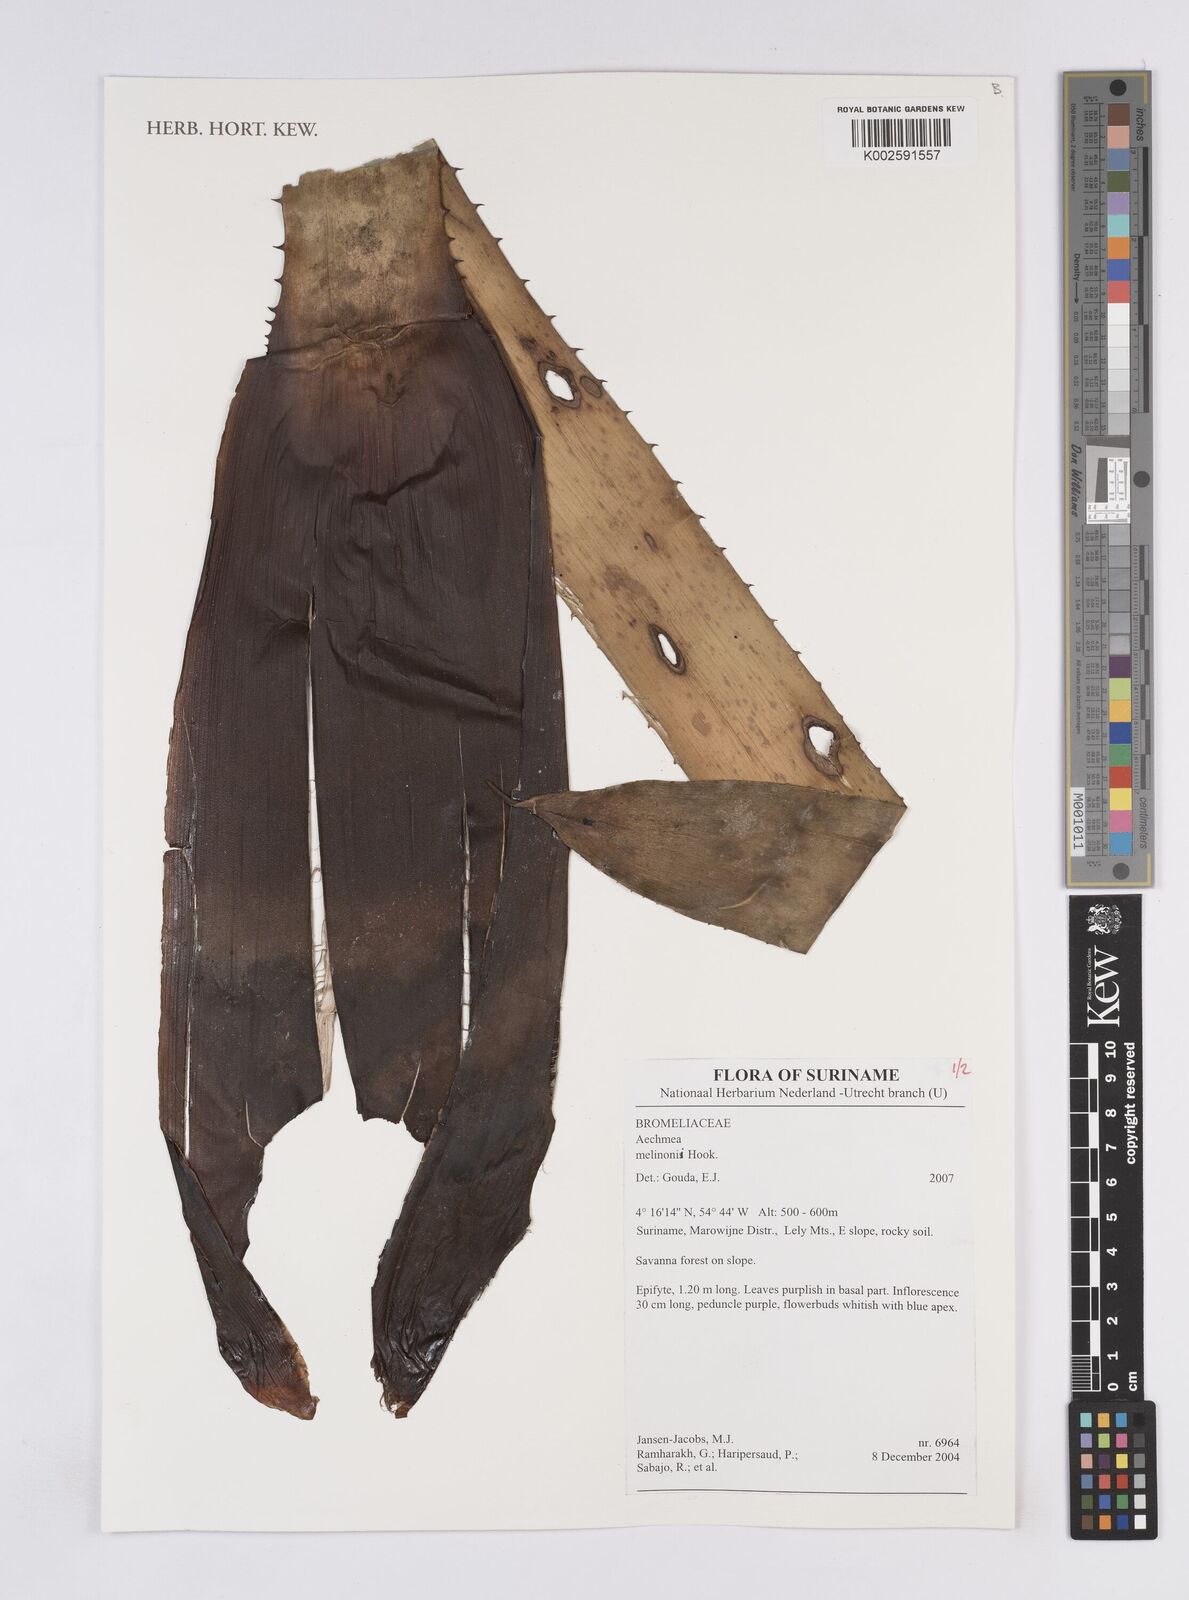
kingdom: Plantae
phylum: Tracheophyta
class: Liliopsida
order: Poales
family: Bromeliaceae
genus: Aechmea
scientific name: Aechmea melinonii
